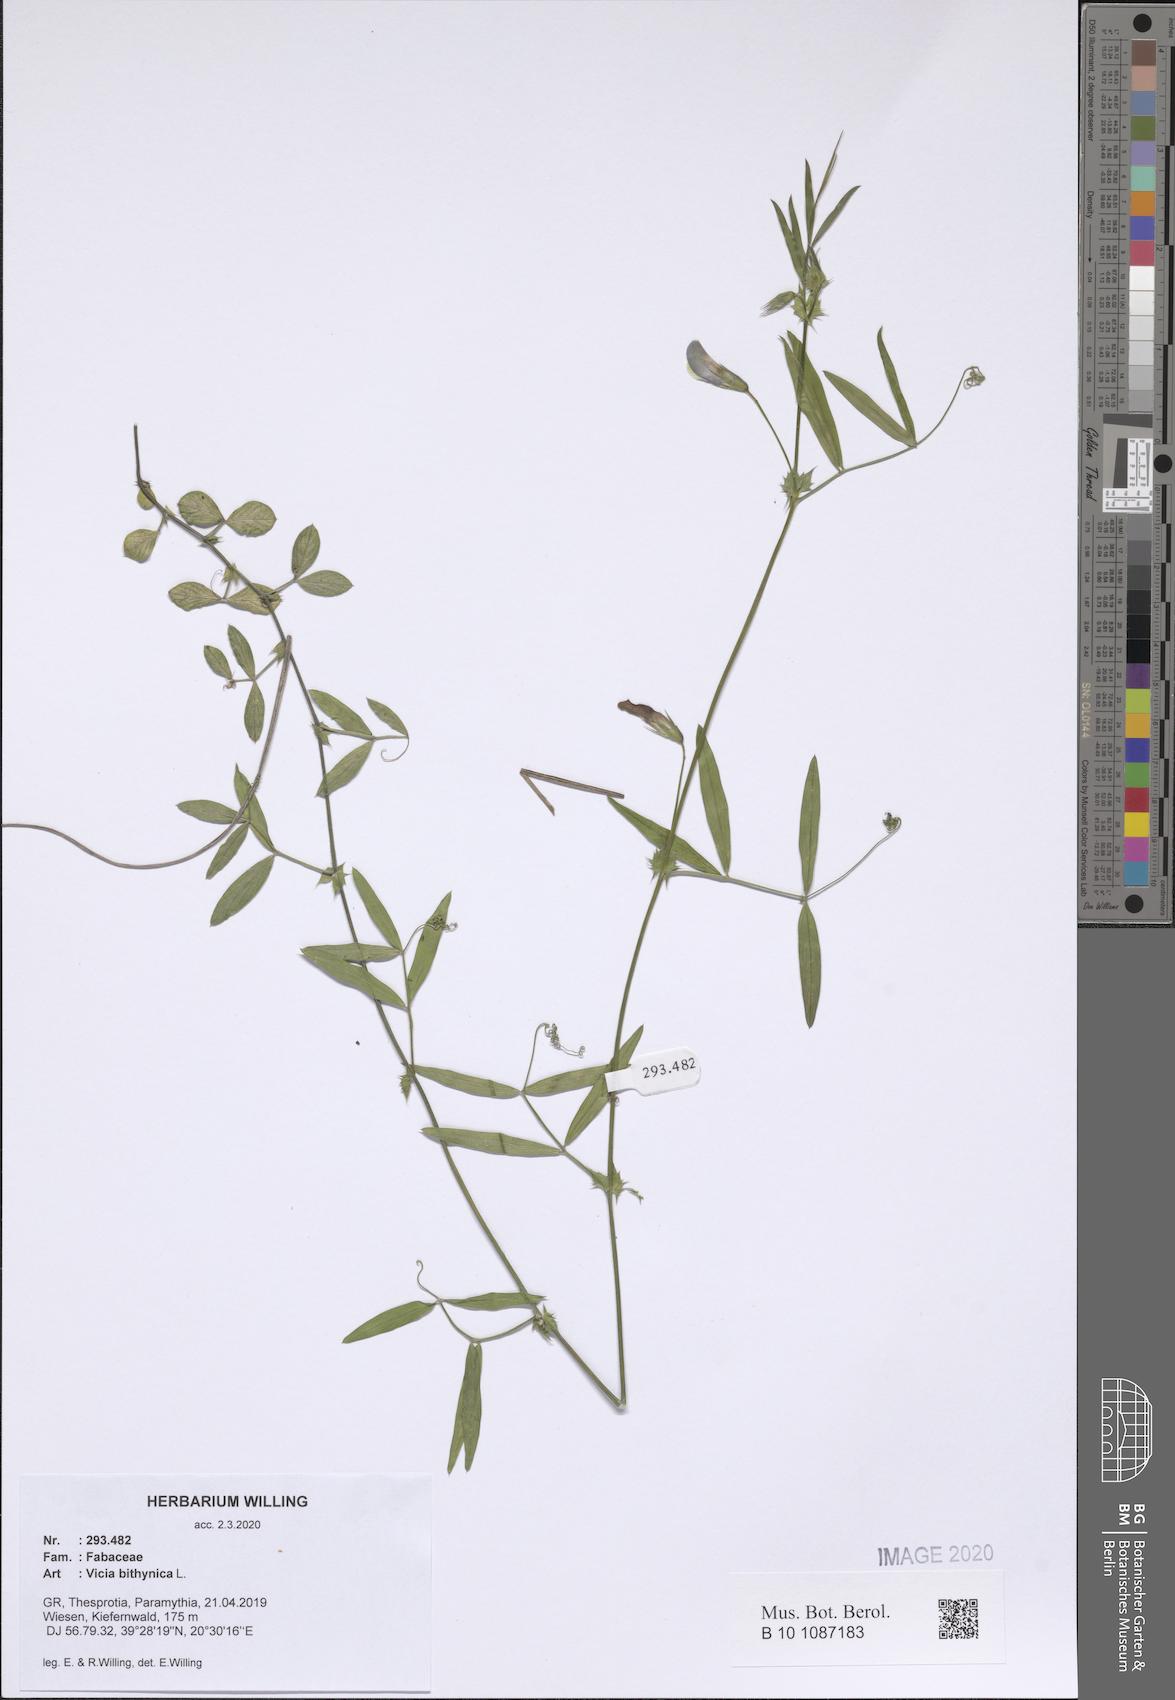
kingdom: Plantae
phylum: Tracheophyta
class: Magnoliopsida
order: Fabales
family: Fabaceae
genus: Vicia
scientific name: Vicia bithynica
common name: Bithynian vetch
